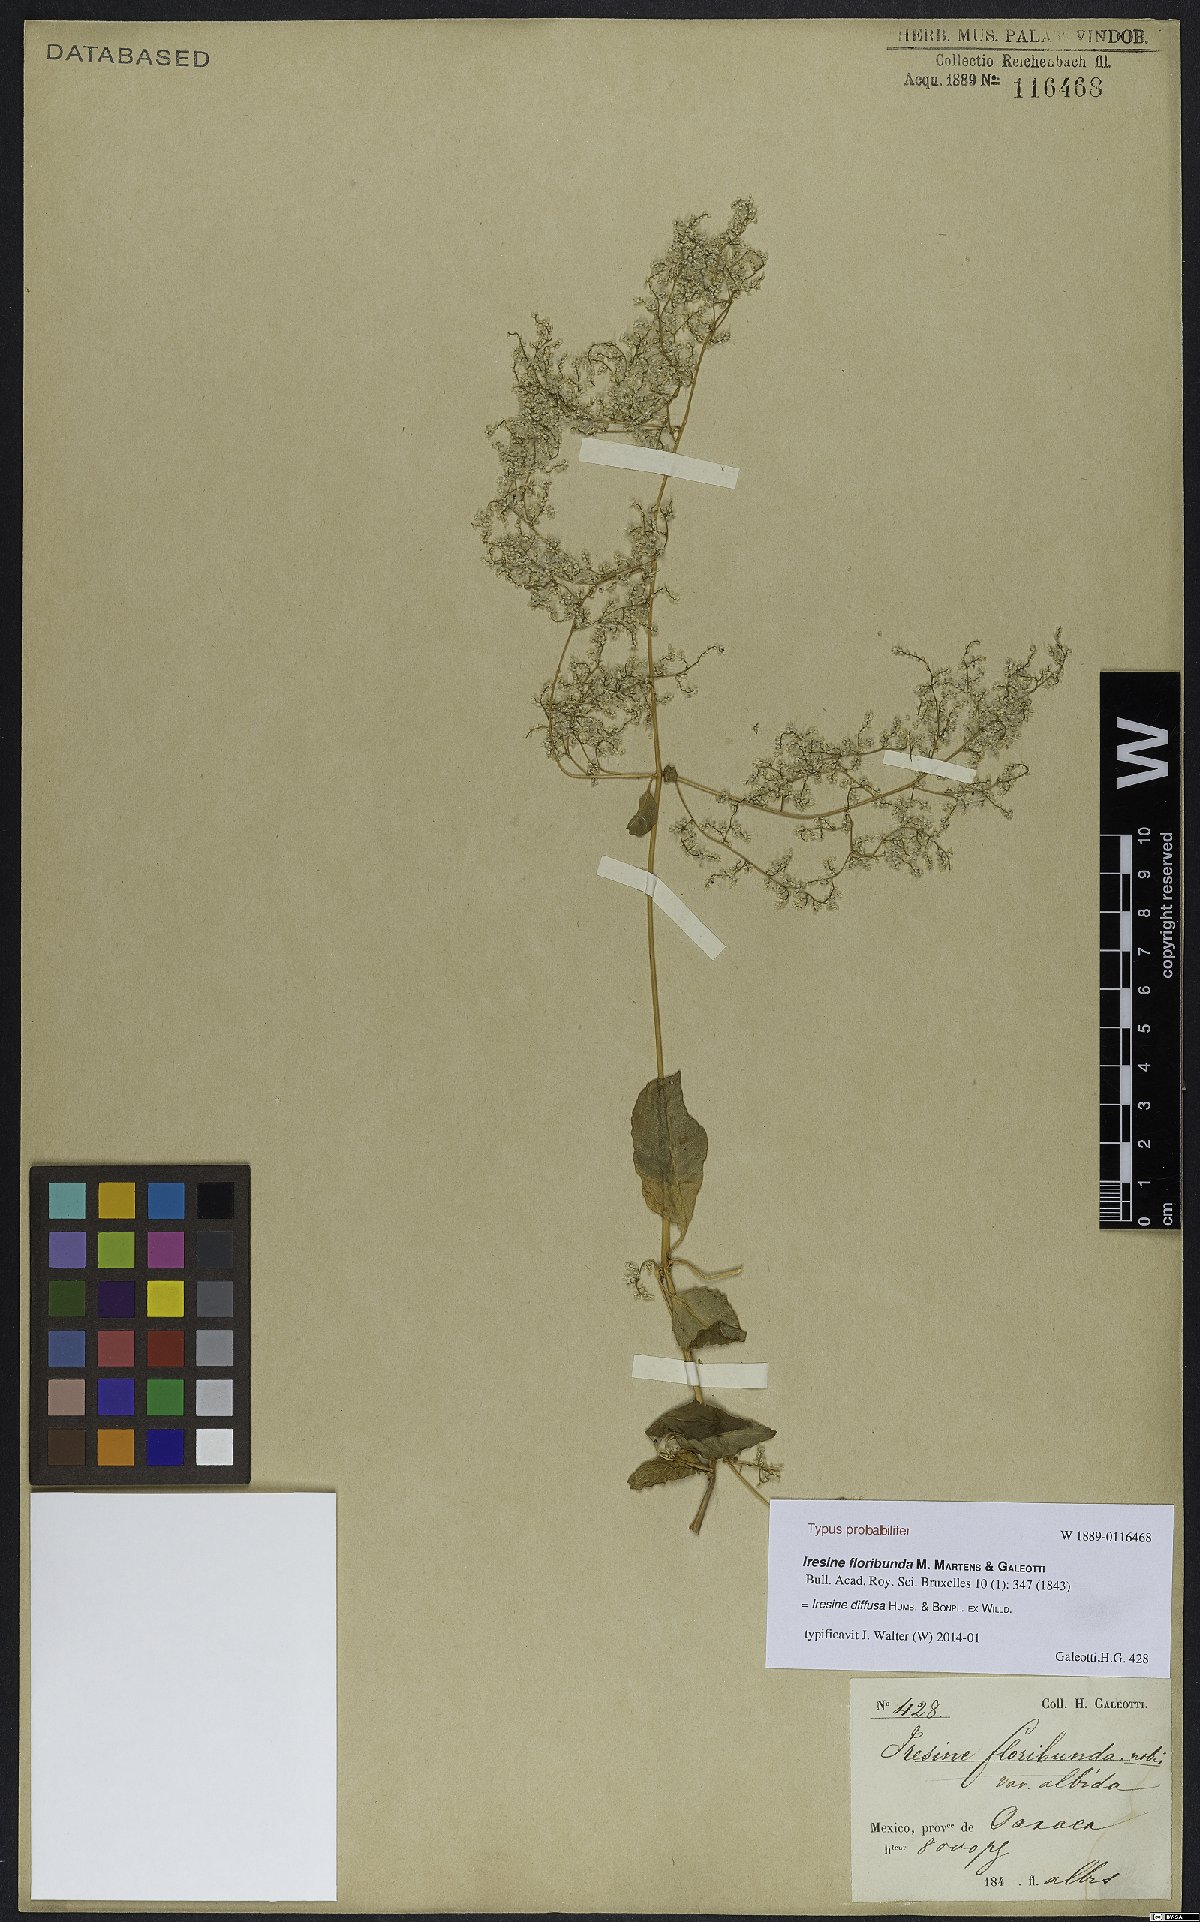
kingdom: Plantae
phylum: Tracheophyta
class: Magnoliopsida
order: Caryophyllales
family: Amaranthaceae
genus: Iresine
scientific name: Iresine diffusa
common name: Juba's-bush
